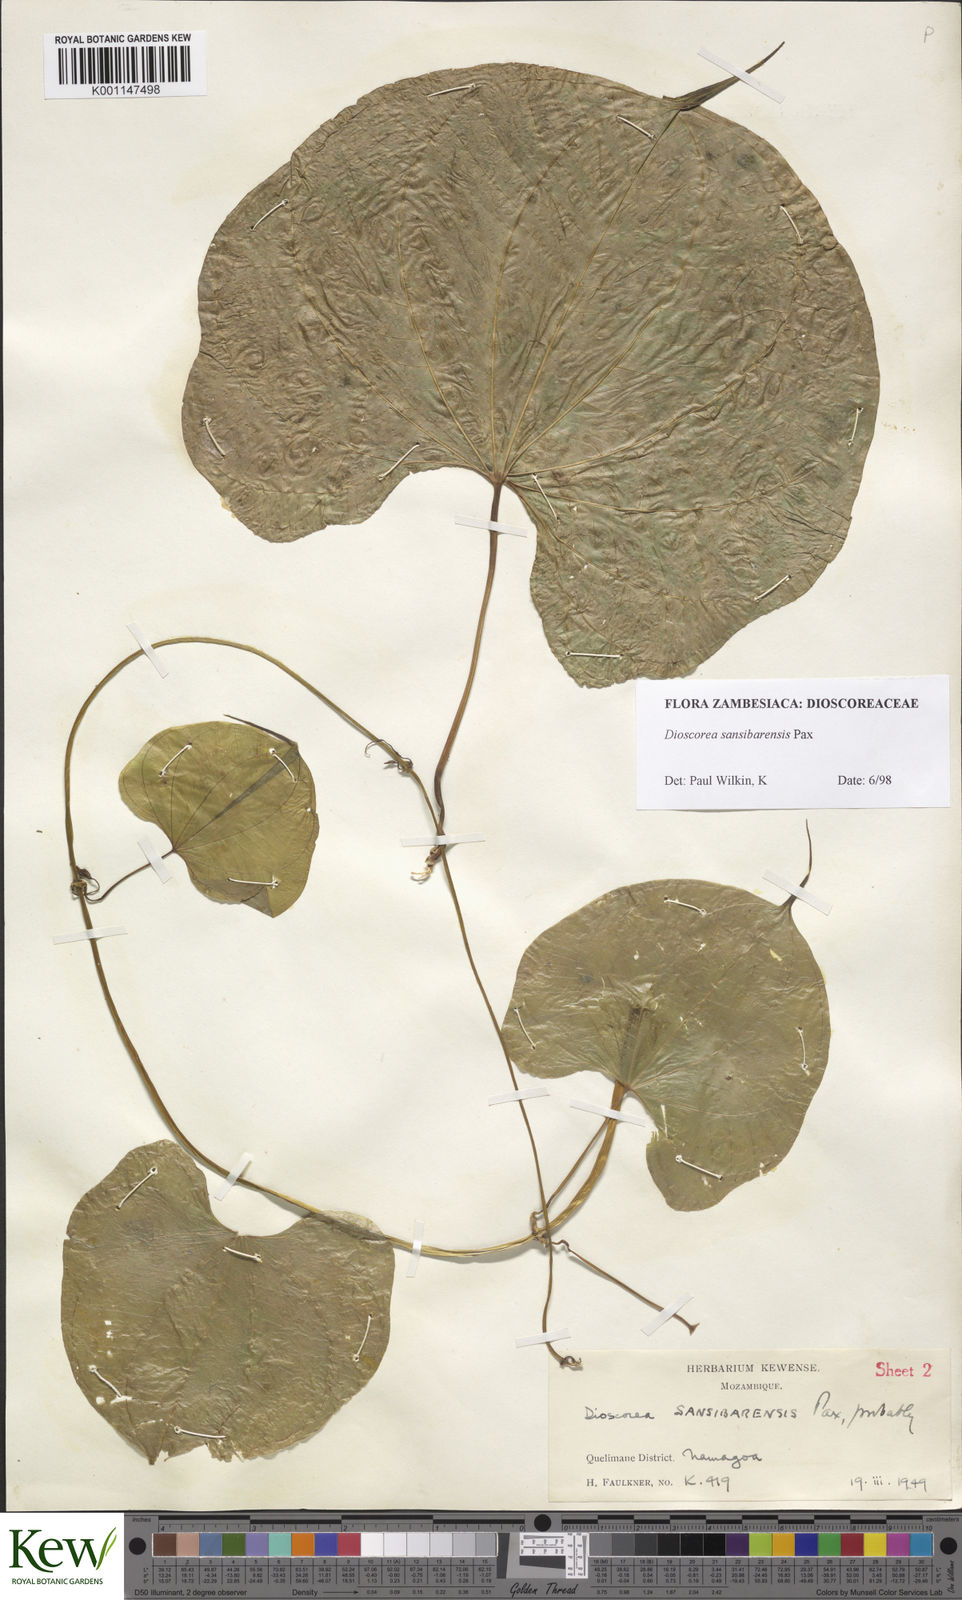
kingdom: Plantae
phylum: Tracheophyta
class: Liliopsida
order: Dioscoreales
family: Dioscoreaceae
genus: Dioscorea
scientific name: Dioscorea sansibarensis
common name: Zanzibar yam
